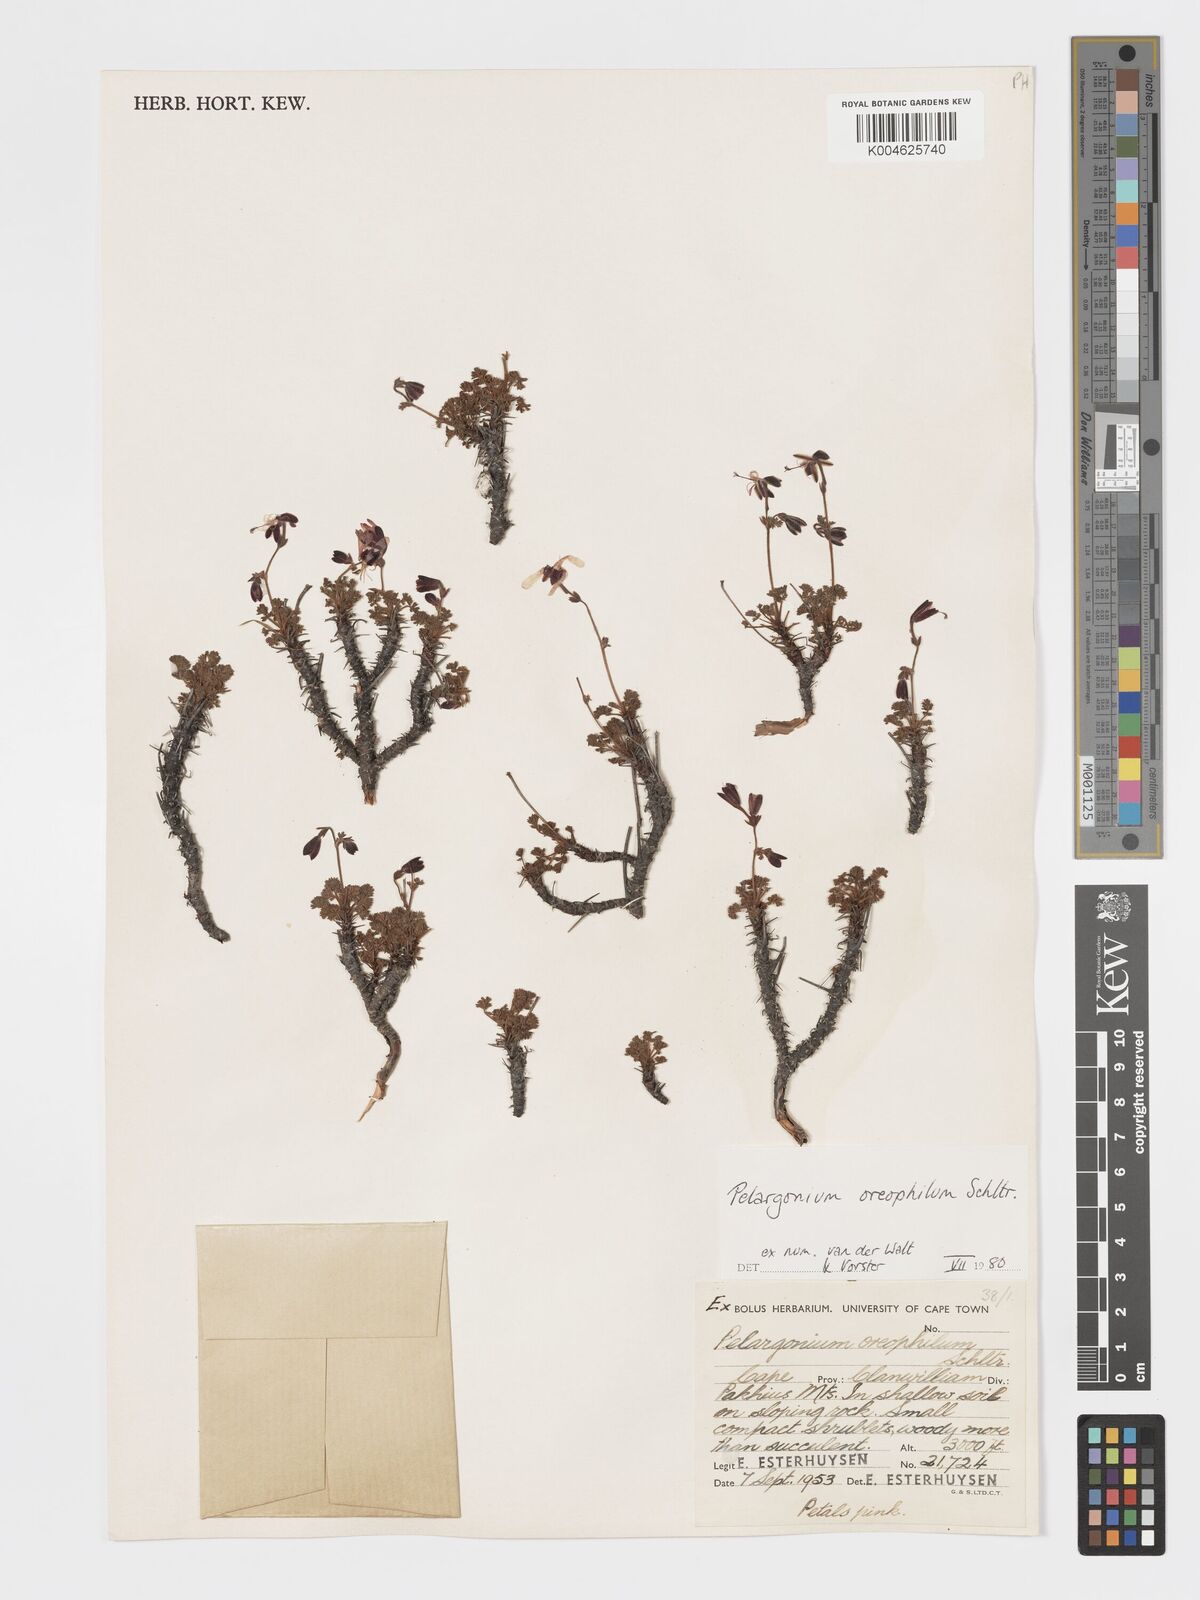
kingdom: Plantae
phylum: Tracheophyta
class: Magnoliopsida
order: Geraniales
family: Geraniaceae
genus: Pelargonium
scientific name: Pelargonium oreophilum
